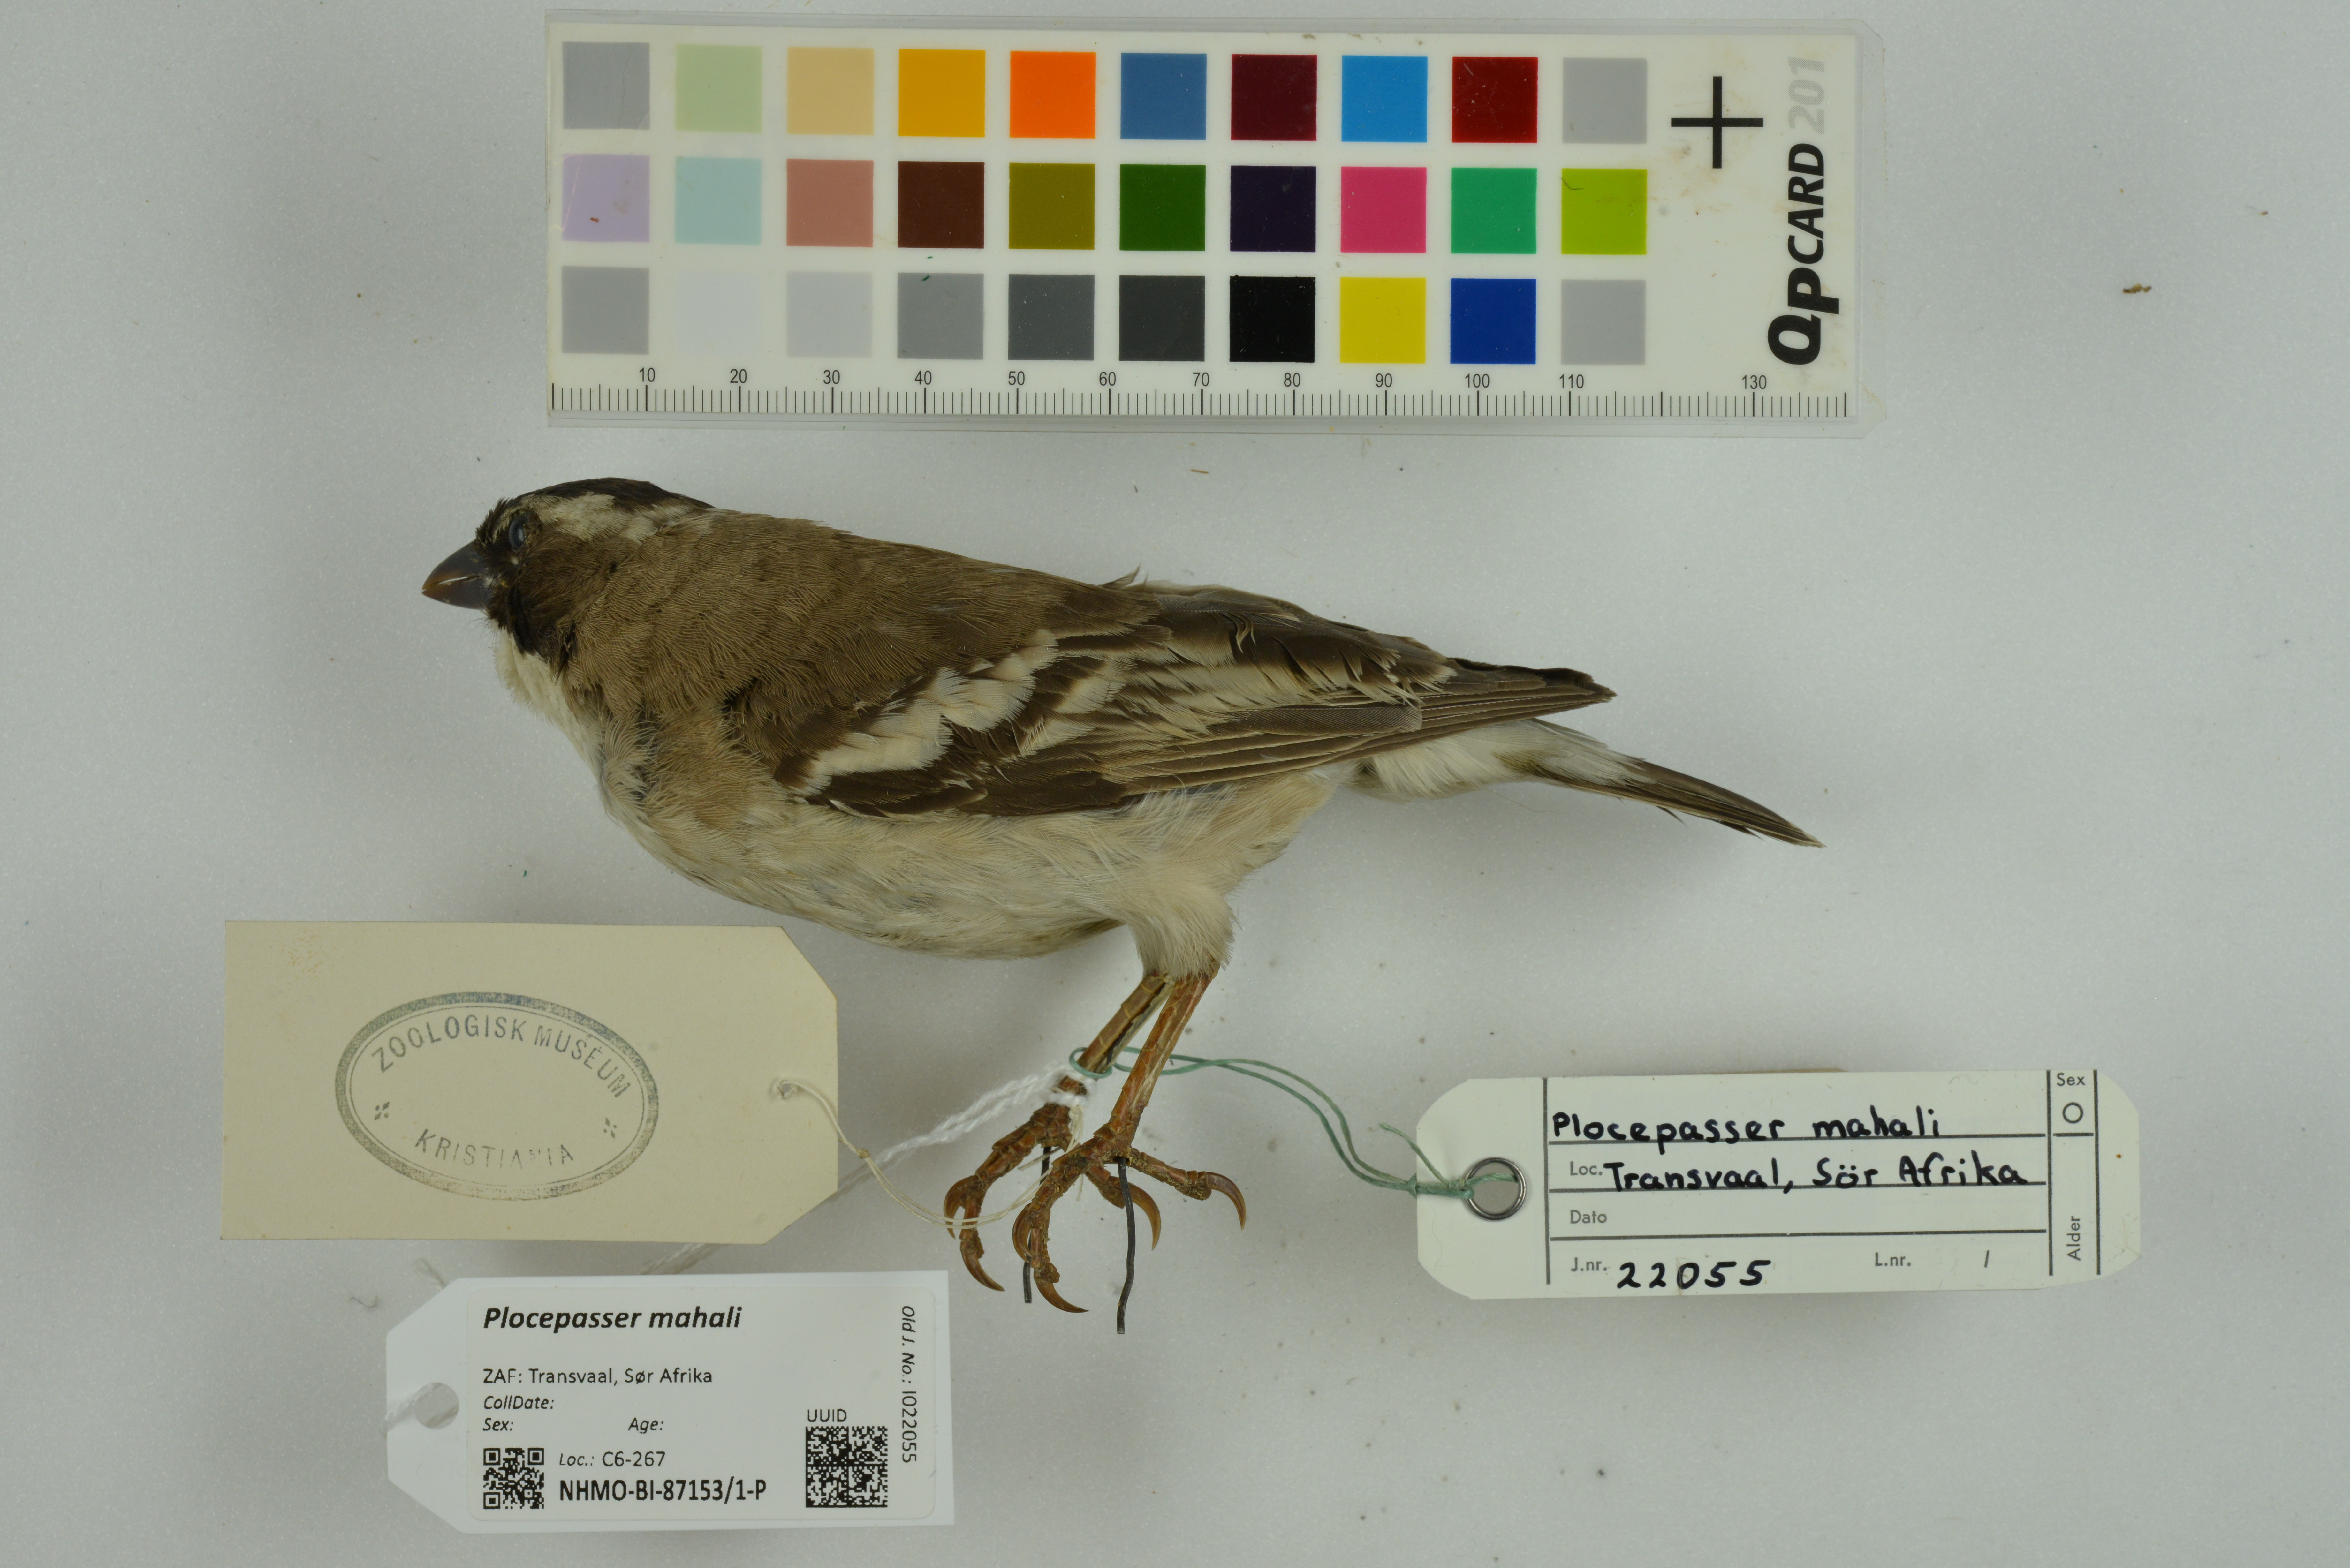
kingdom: Animalia
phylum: Chordata
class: Aves
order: Passeriformes
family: Passeridae
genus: Plocepasser
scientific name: Plocepasser mahali
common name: White-browed sparrow-weaver
